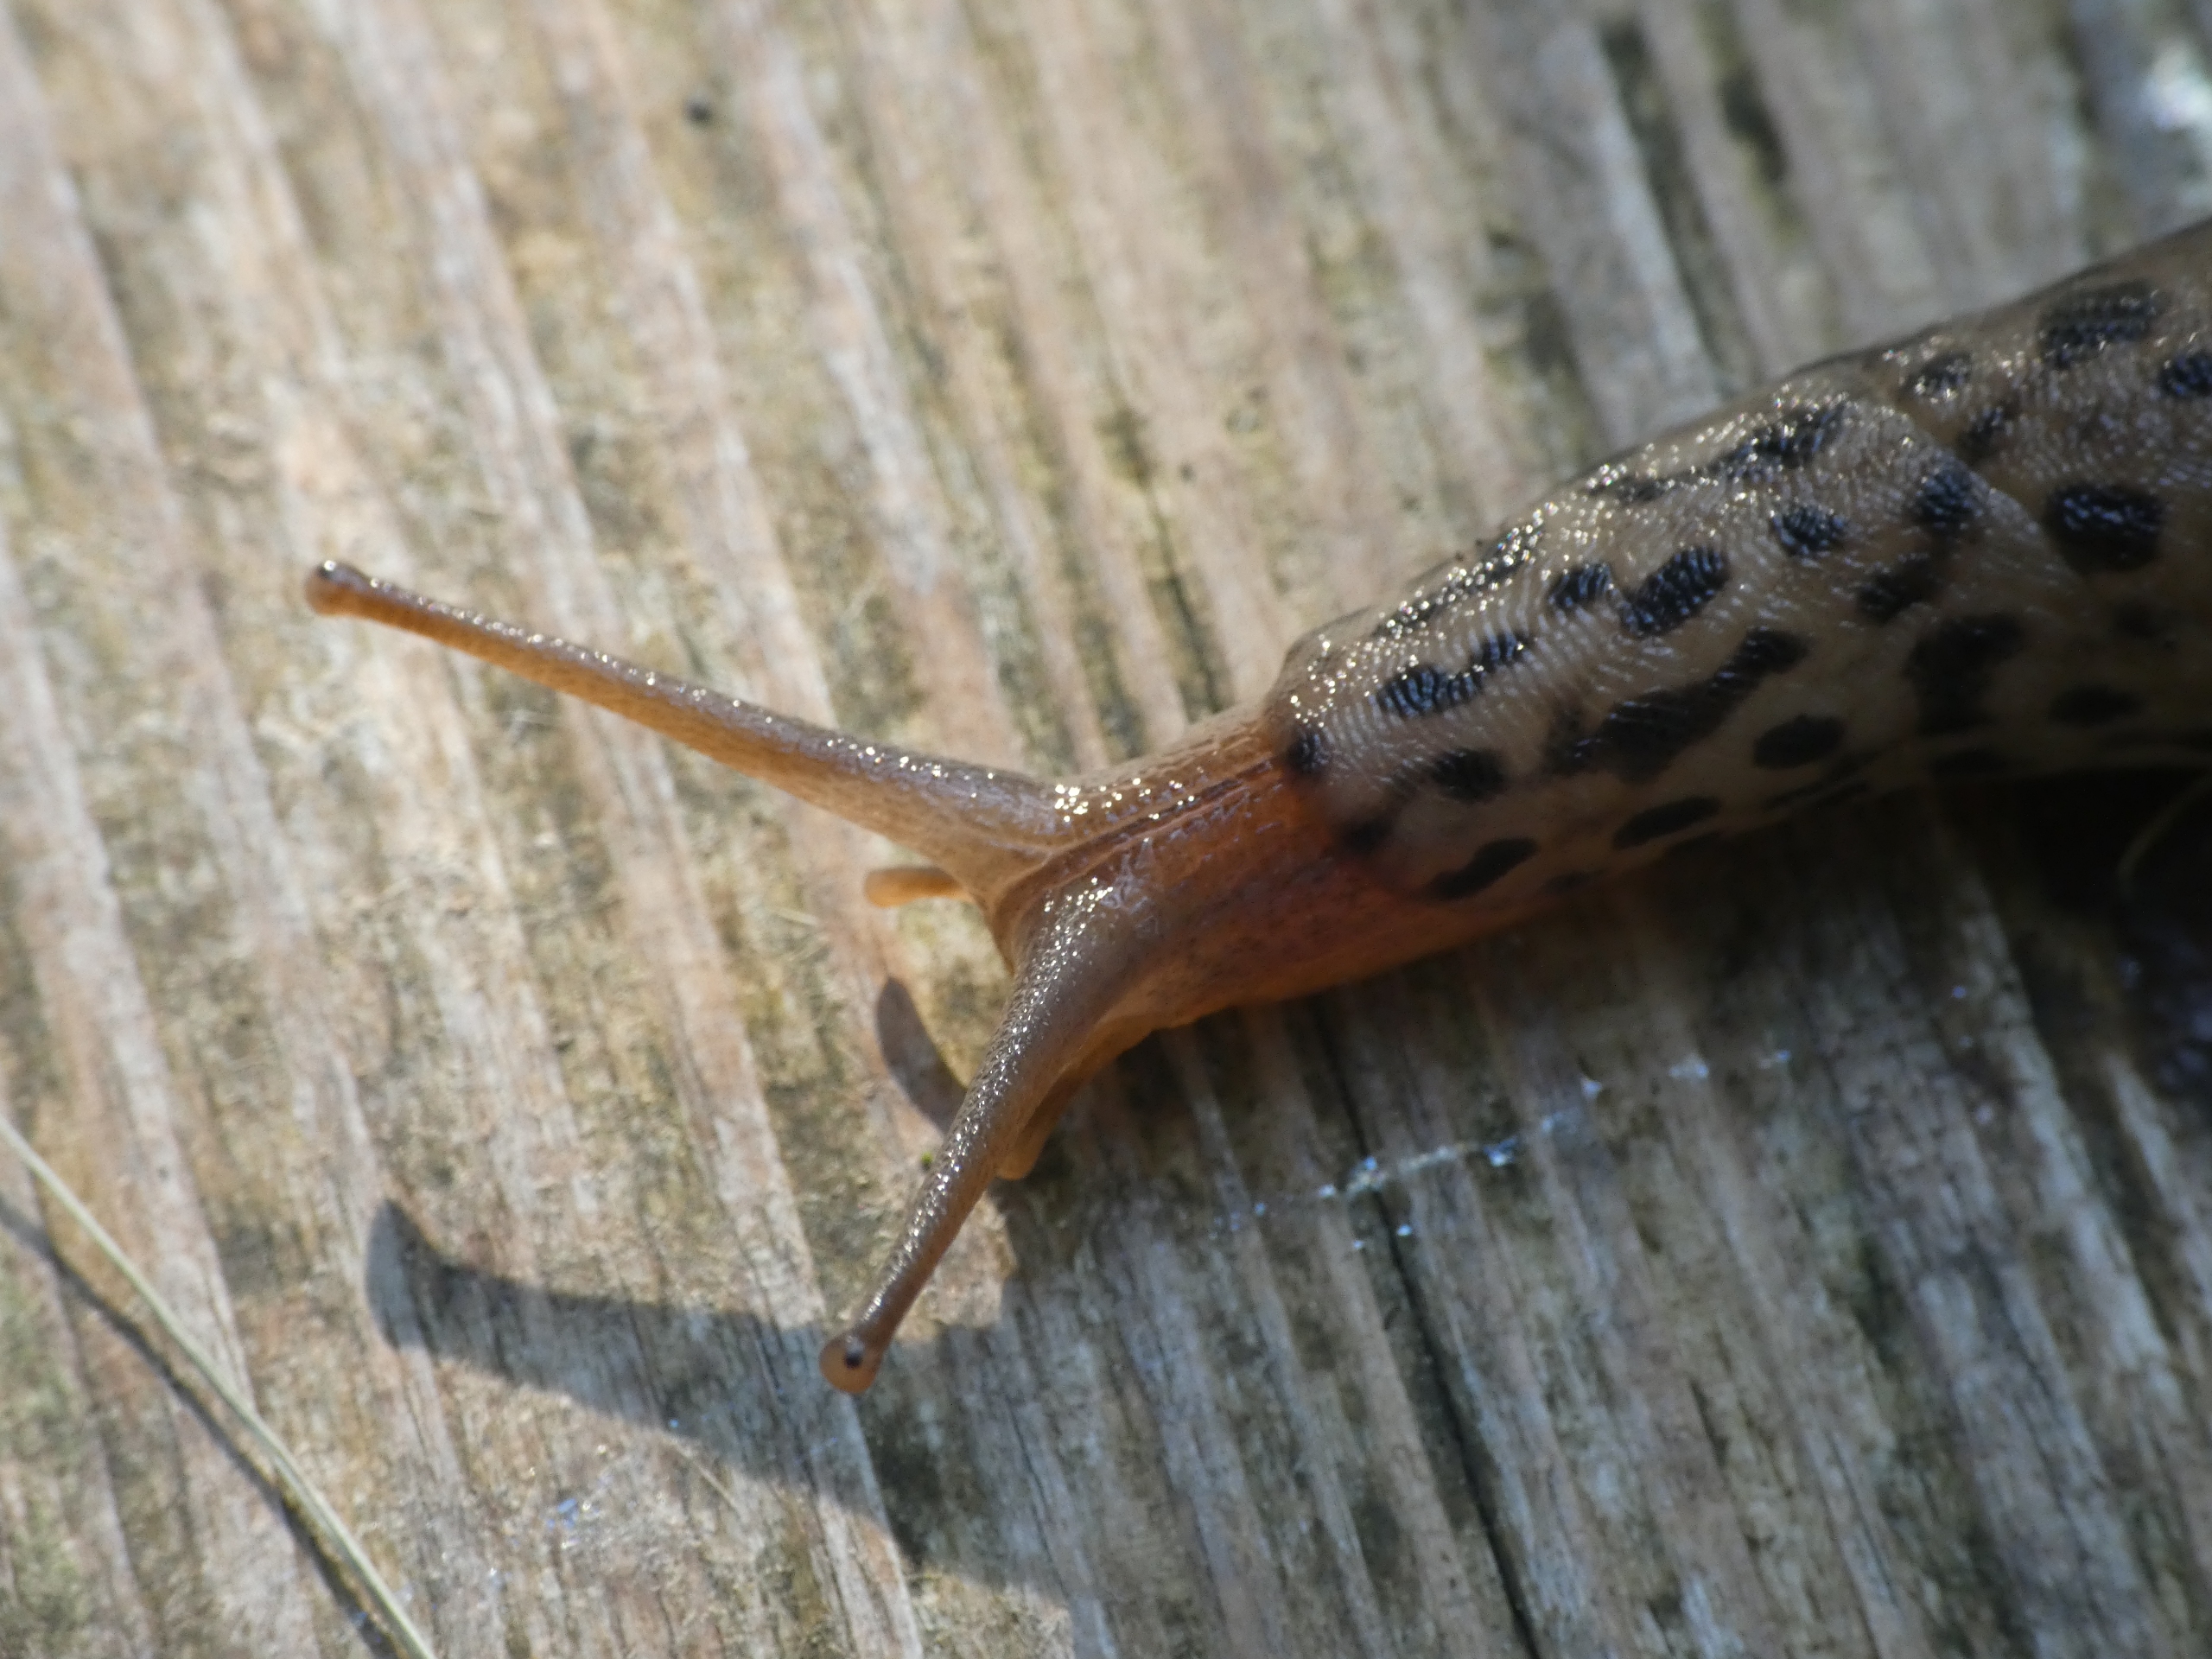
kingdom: Animalia
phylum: Mollusca
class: Gastropoda
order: Stylommatophora
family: Limacidae
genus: Limax
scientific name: Limax maximus
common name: Pantersnegl
